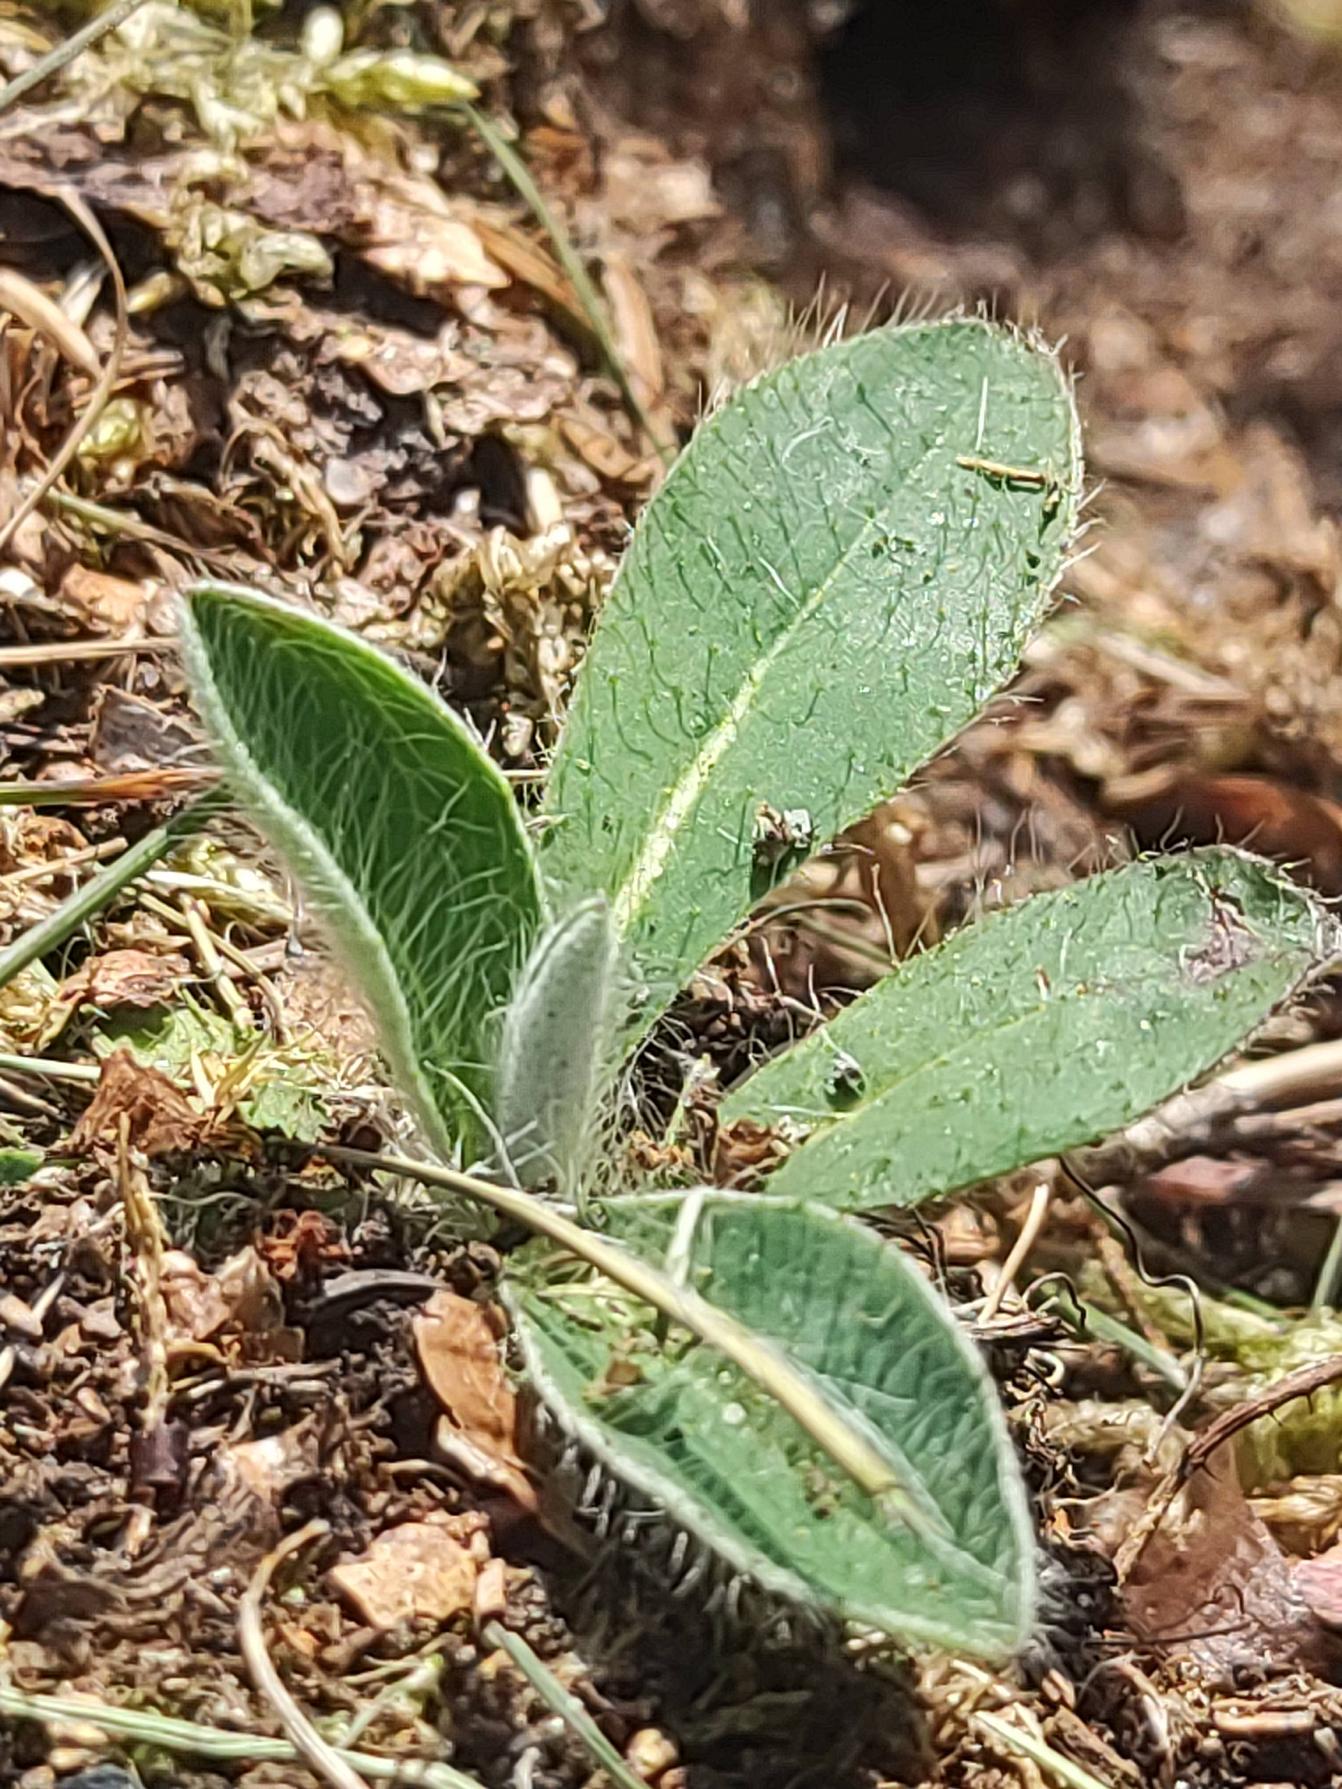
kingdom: Plantae
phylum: Tracheophyta
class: Magnoliopsida
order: Asterales
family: Asteraceae
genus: Pilosella
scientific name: Pilosella officinarum
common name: Håret høgeurt
